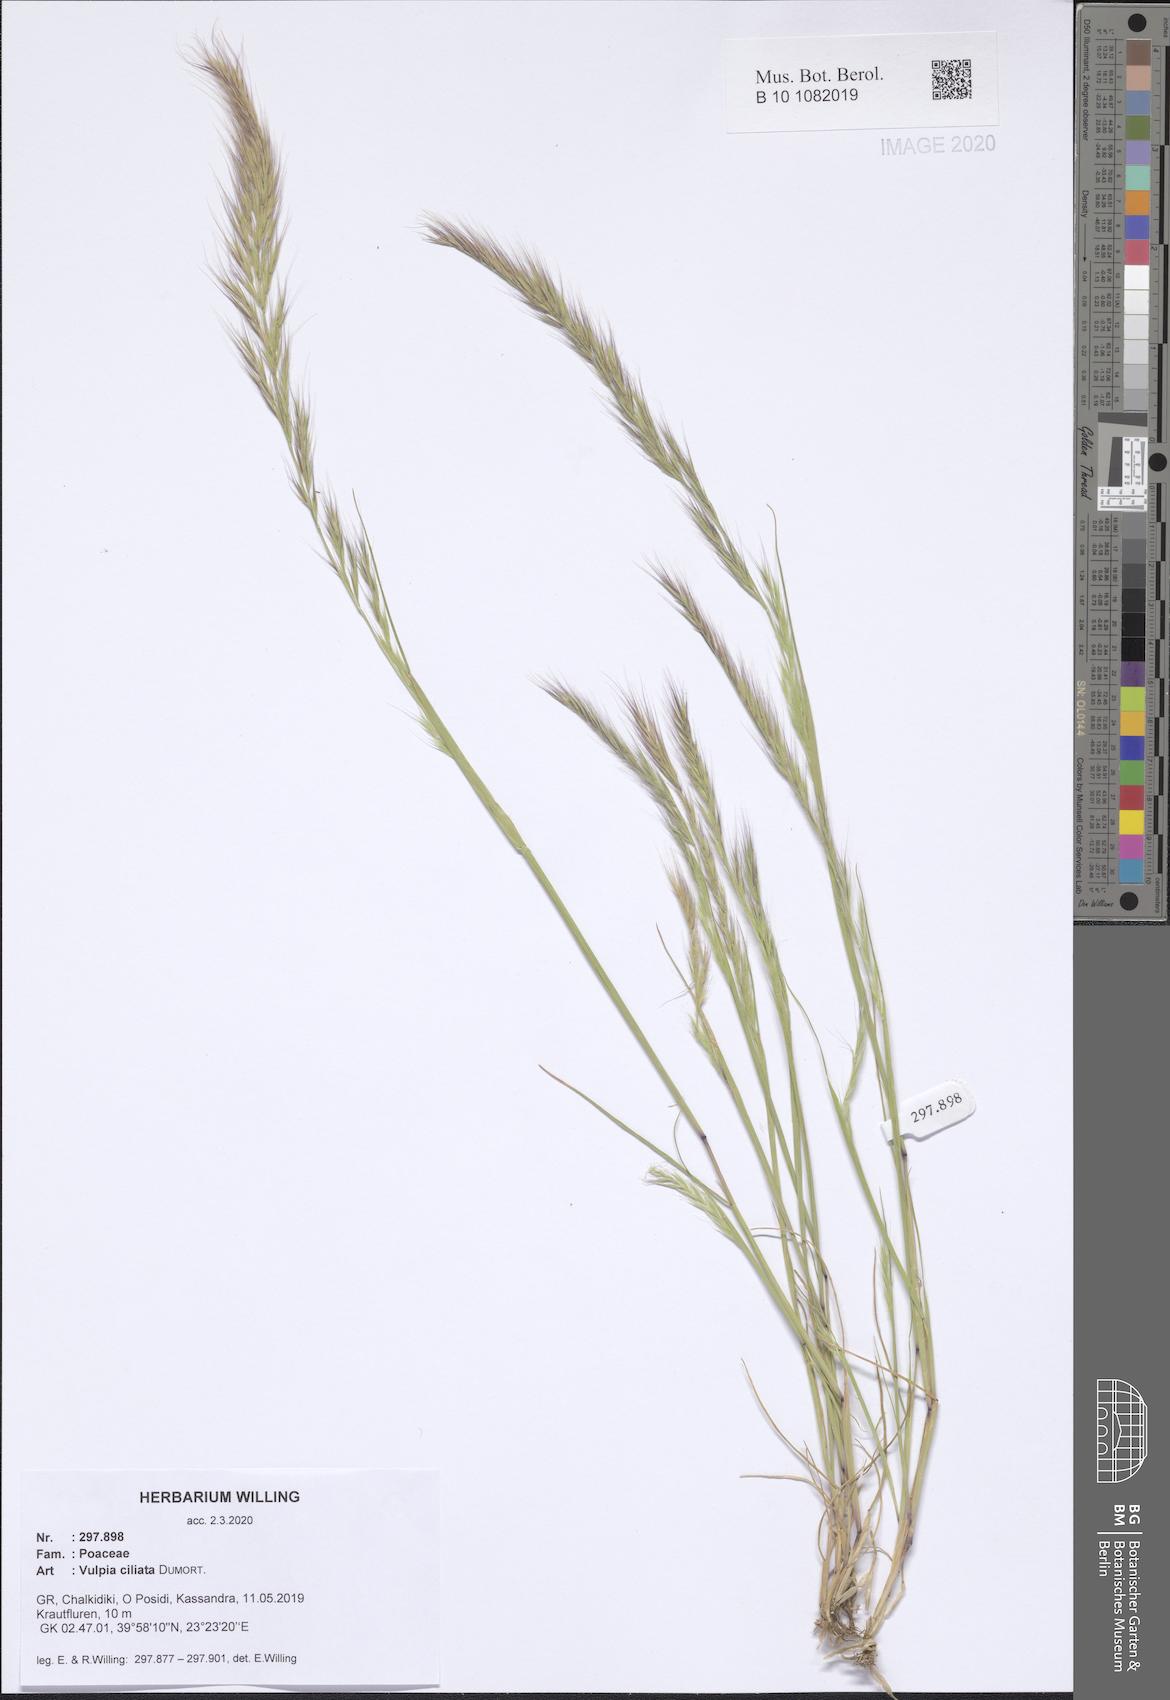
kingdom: Plantae
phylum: Tracheophyta
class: Liliopsida
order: Poales
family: Poaceae
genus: Festuca
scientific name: Festuca ambigua
